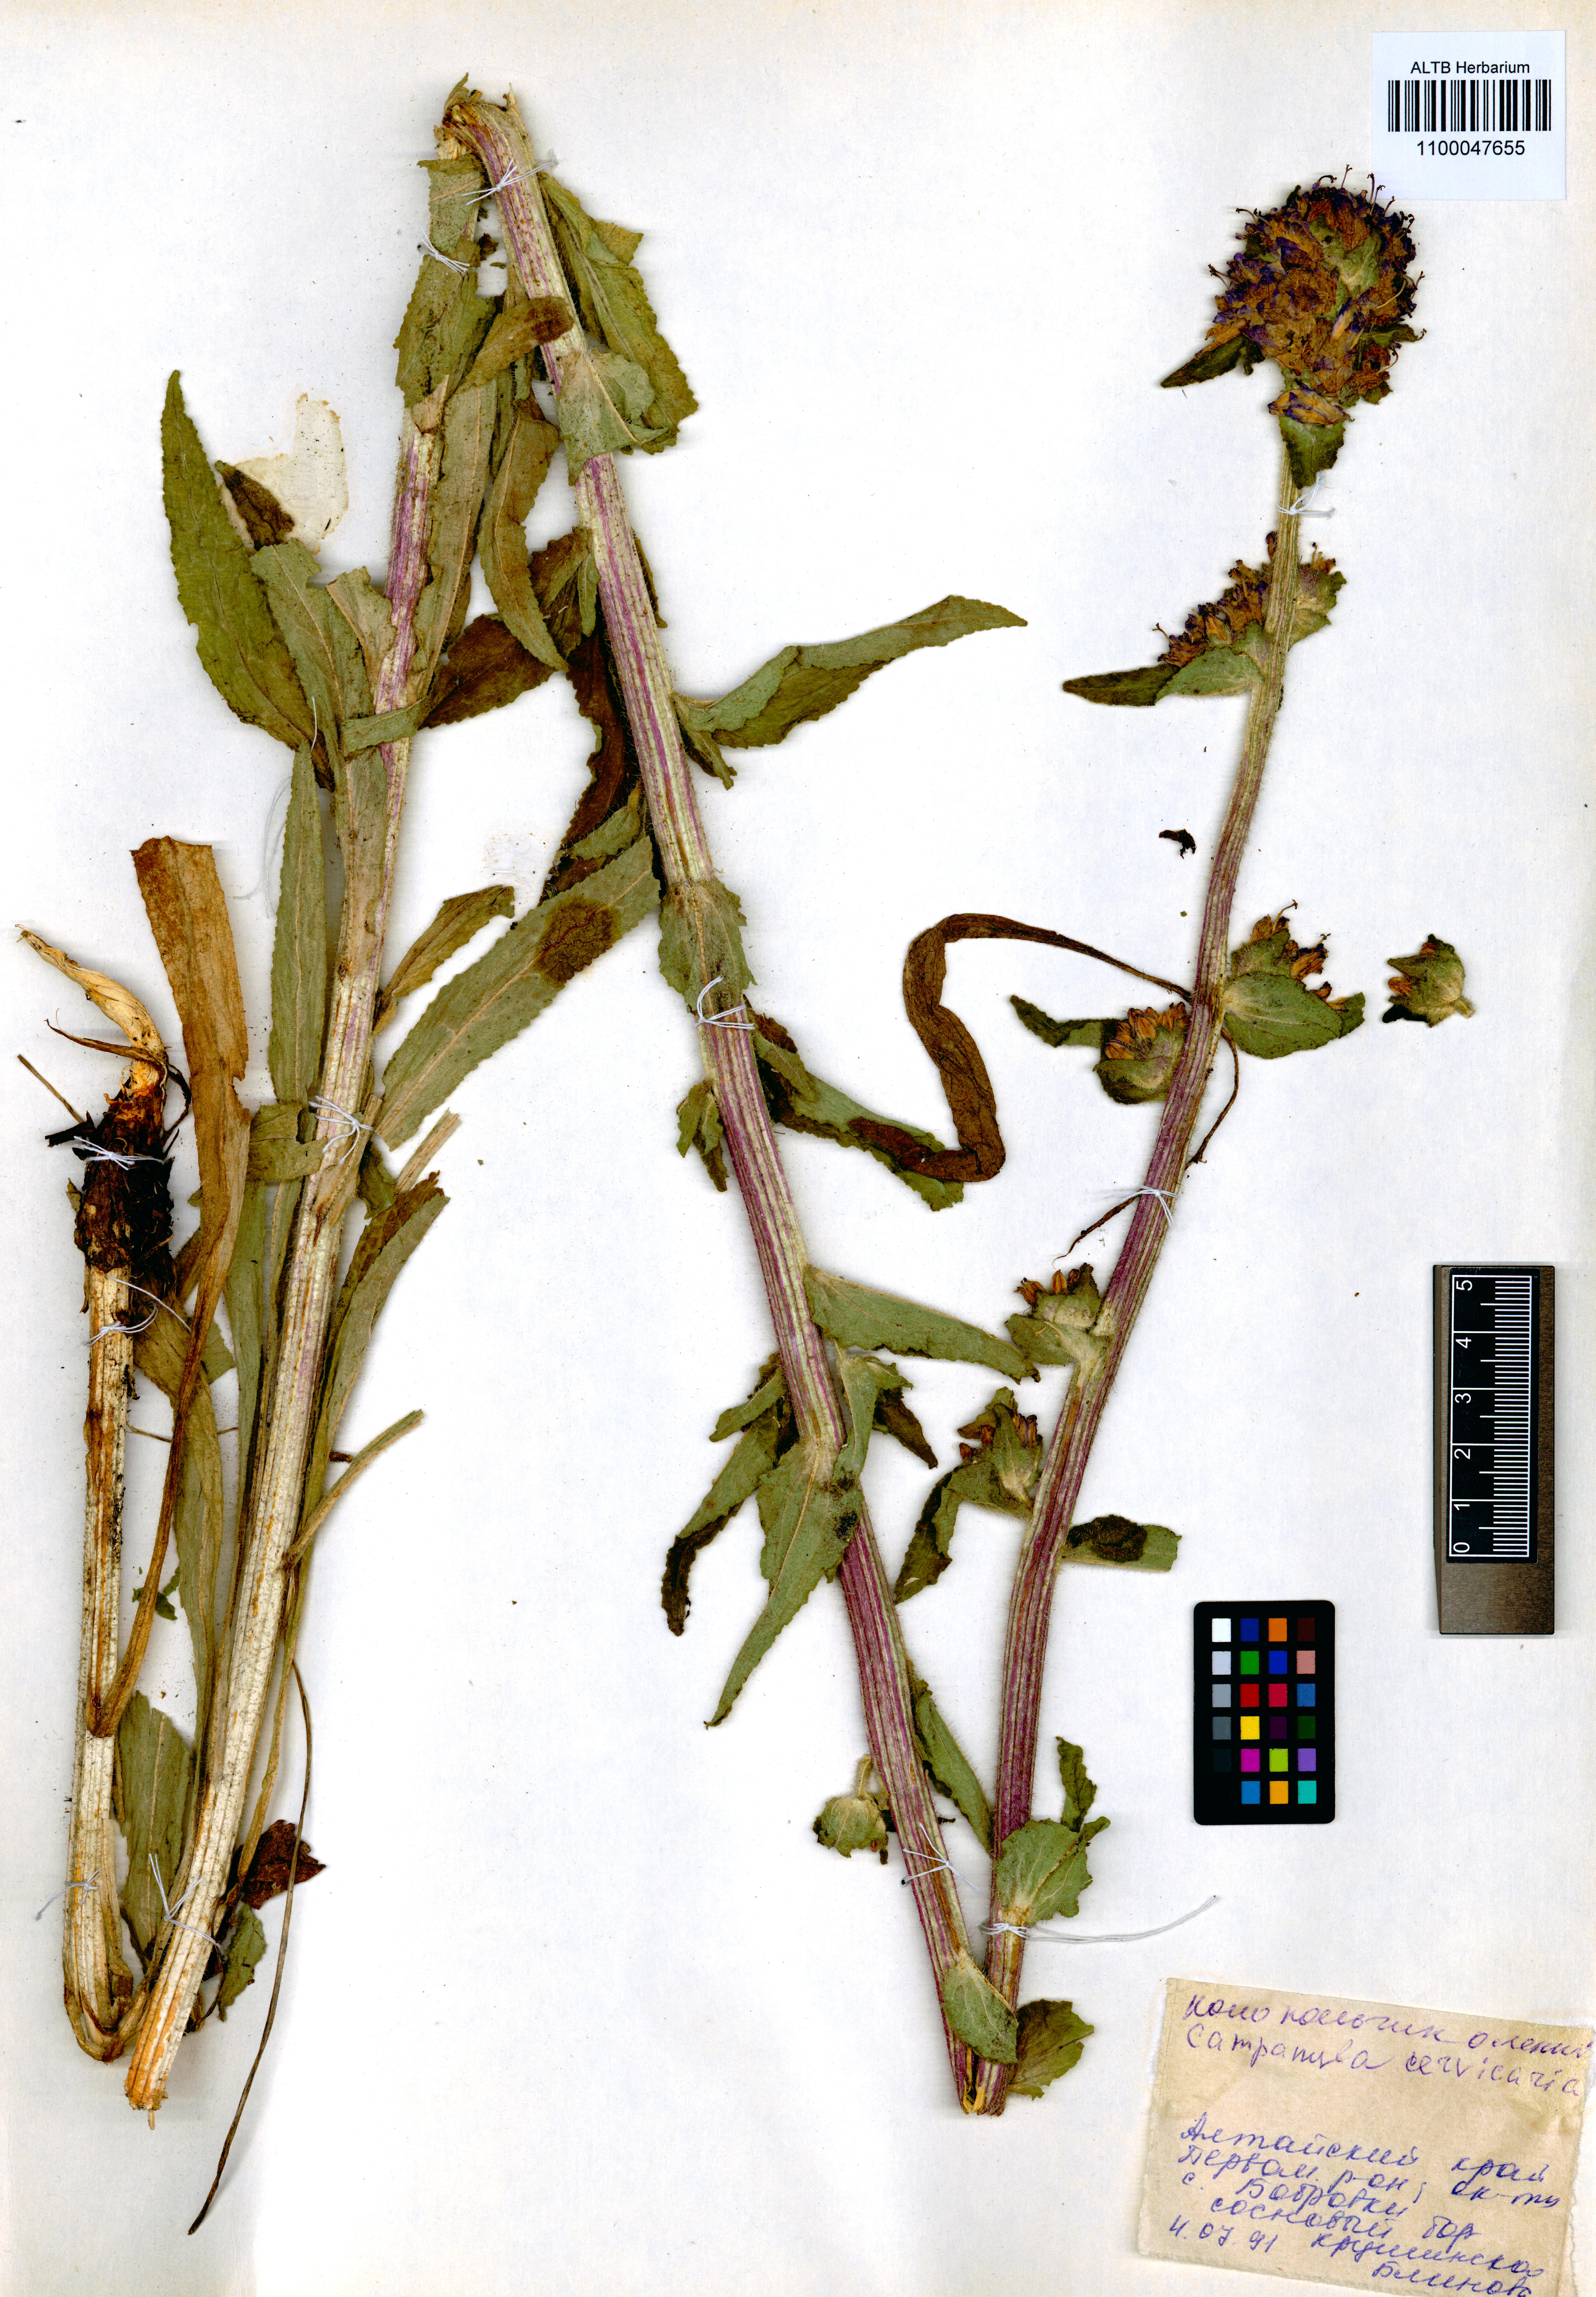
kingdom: Plantae
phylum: Tracheophyta
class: Magnoliopsida
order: Asterales
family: Campanulaceae
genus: Campanula
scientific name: Campanula cervicaria
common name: Bristly bellflower
